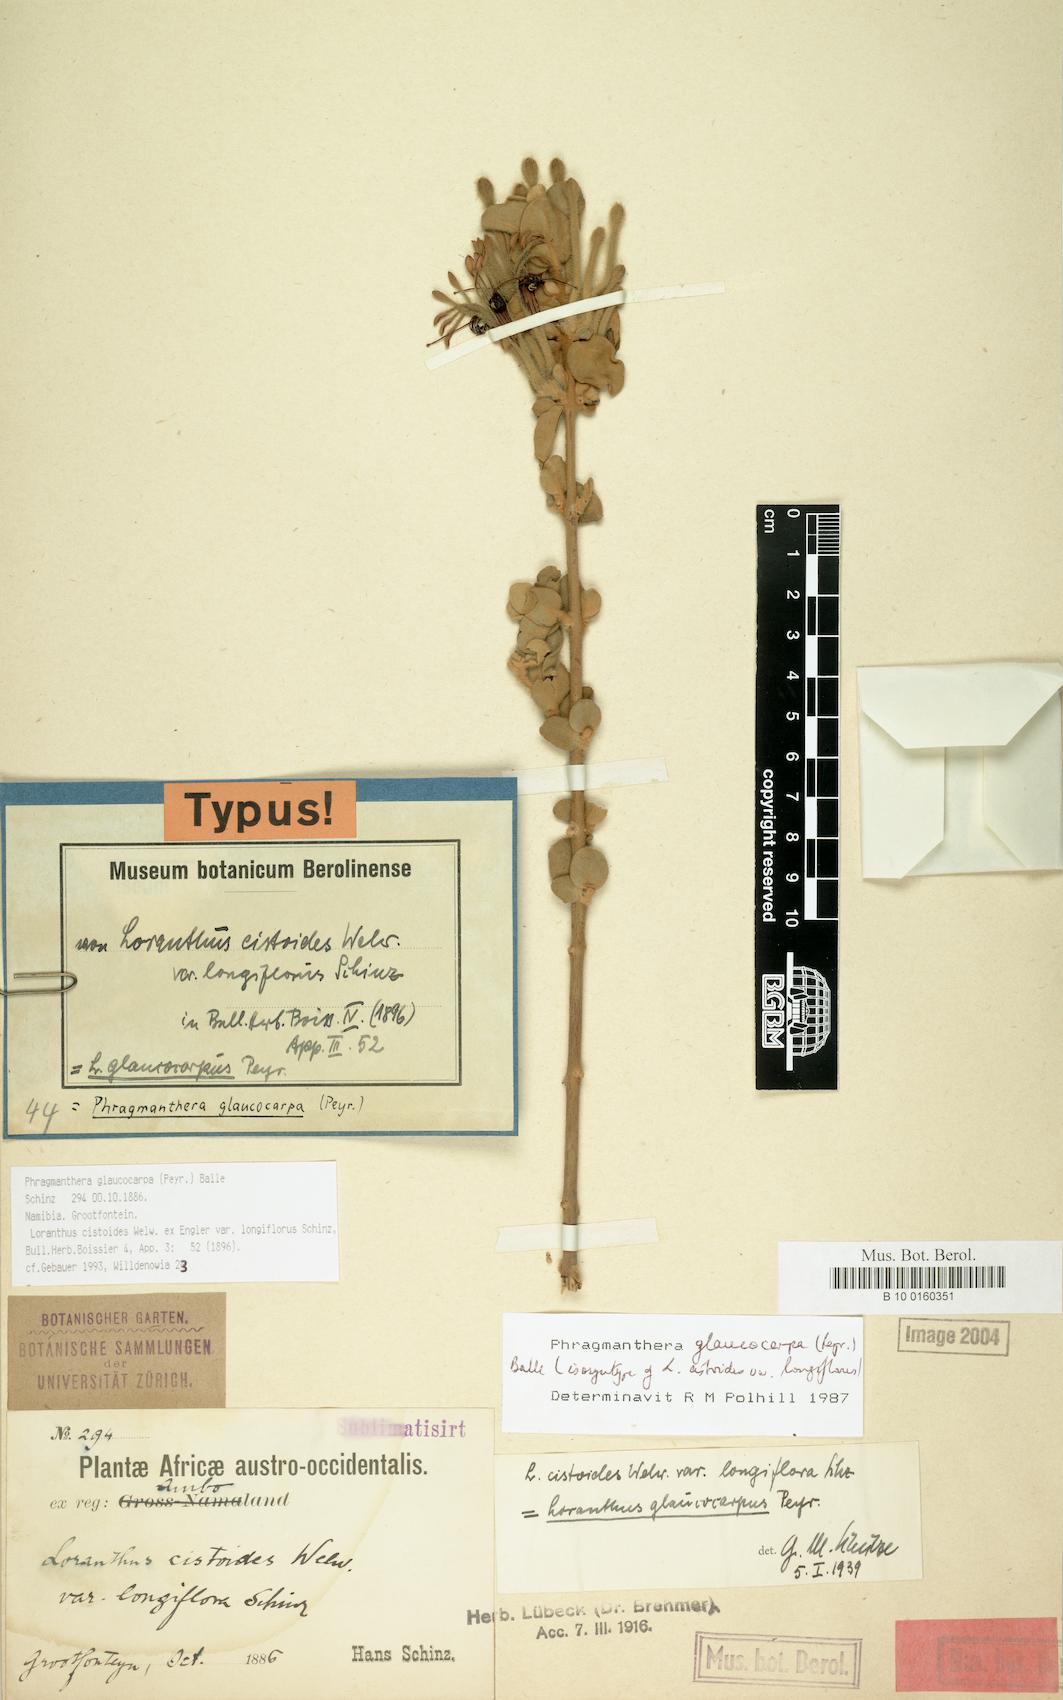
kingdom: Plantae
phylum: Tracheophyta
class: Magnoliopsida
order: Santalales
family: Loranthaceae
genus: Phragmanthera
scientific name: Phragmanthera glaucocarpa
